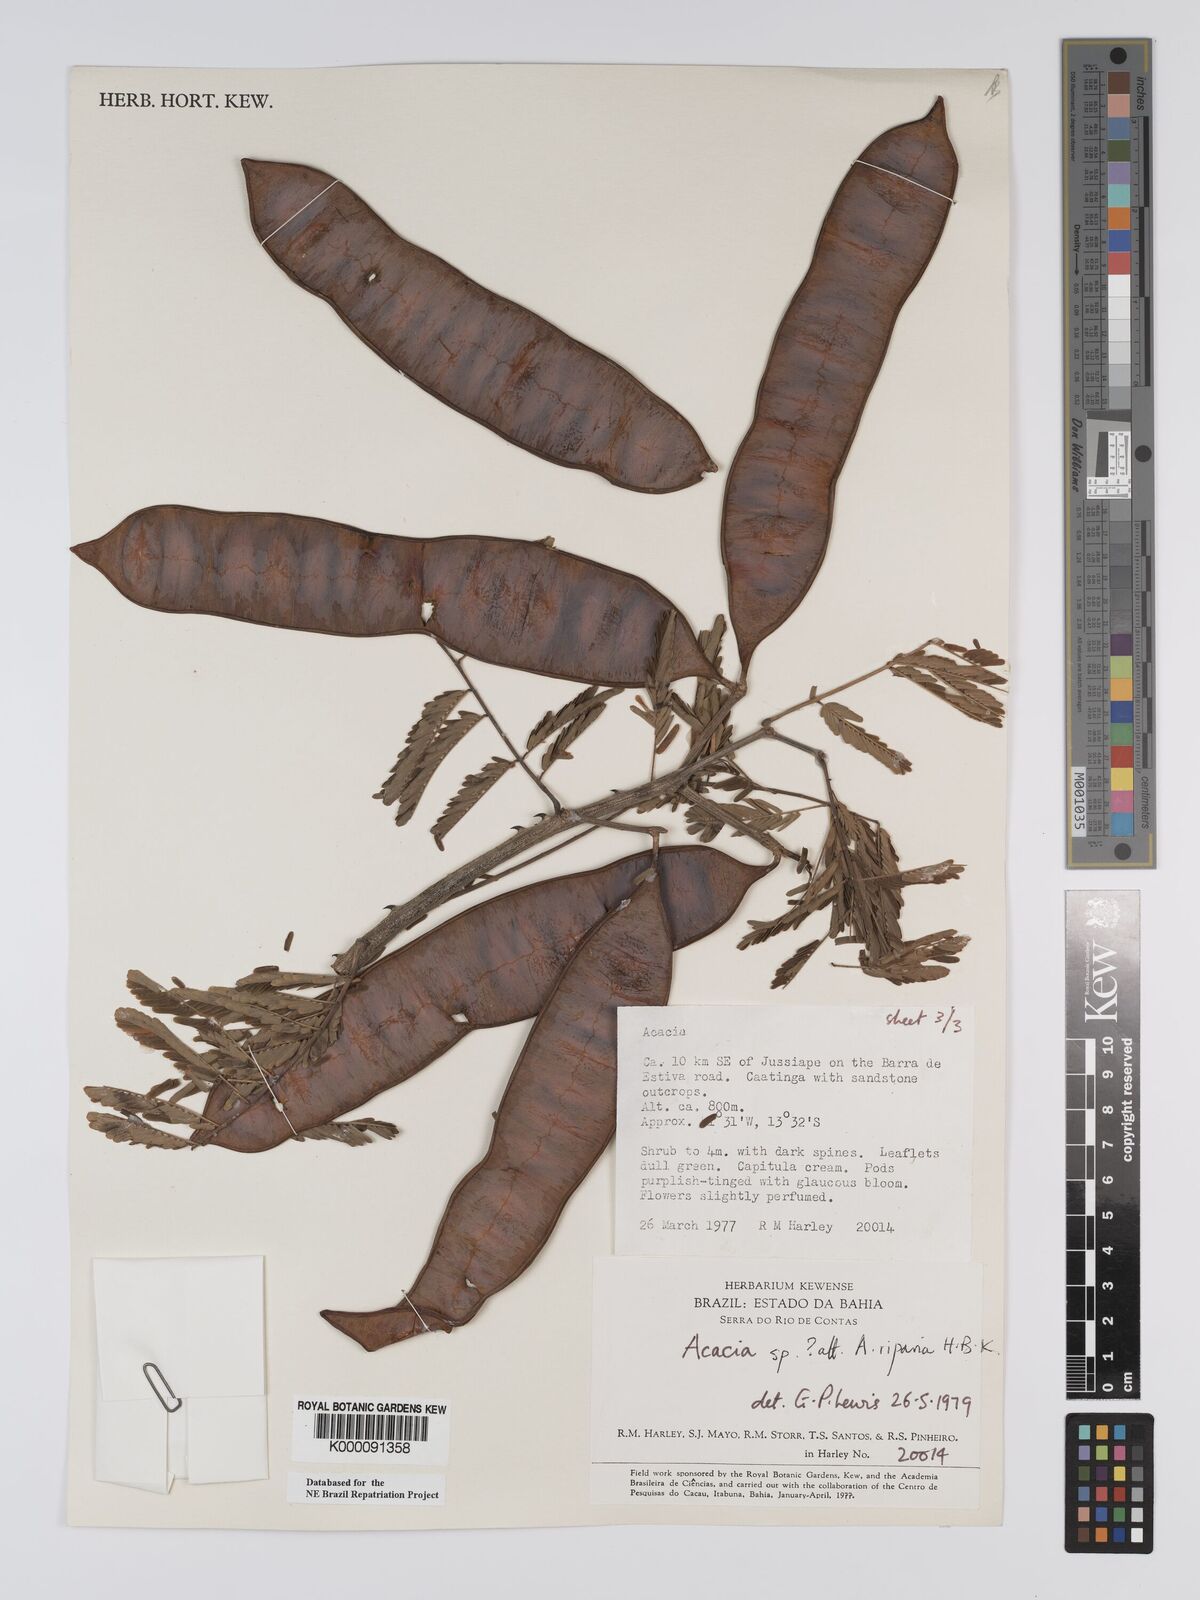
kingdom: Plantae
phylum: Tracheophyta
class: Magnoliopsida
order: Fabales
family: Fabaceae
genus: Senegalia
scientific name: Senegalia riparia
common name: Catch-and-keep
